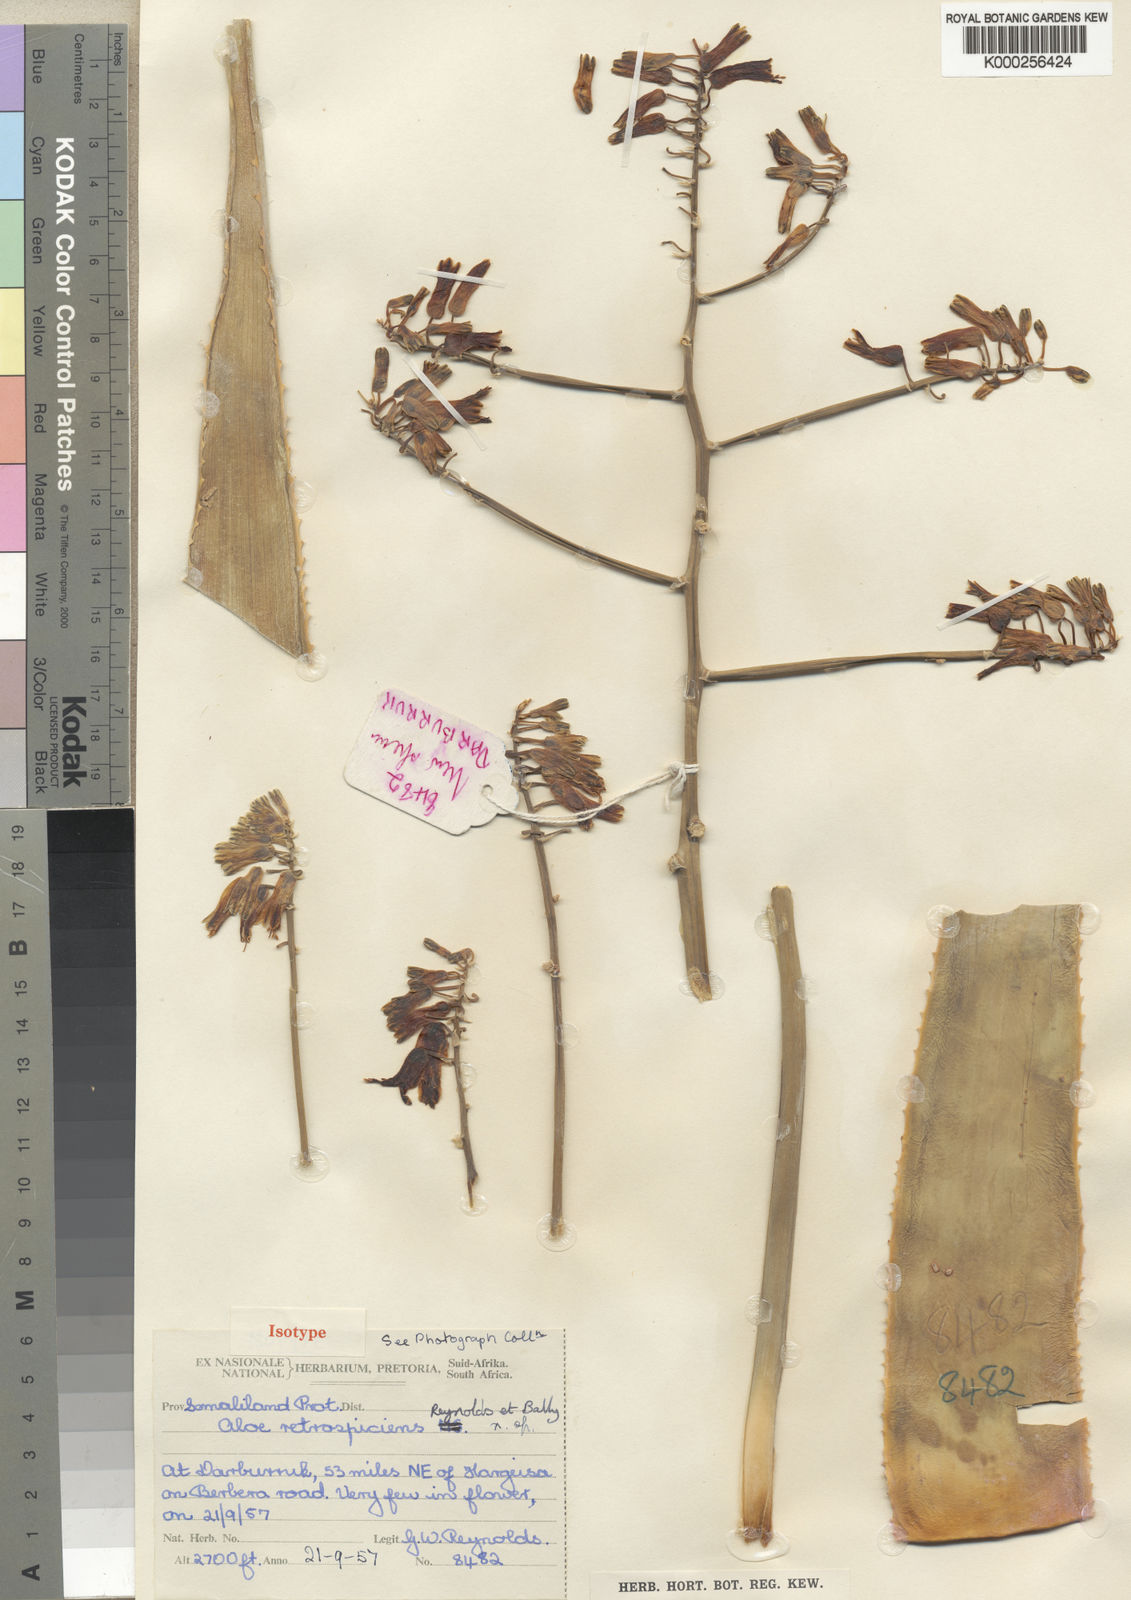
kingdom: Plantae
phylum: Tracheophyta
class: Liliopsida
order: Asparagales
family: Asphodelaceae
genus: Aloe
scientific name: Aloe retrospiciens
